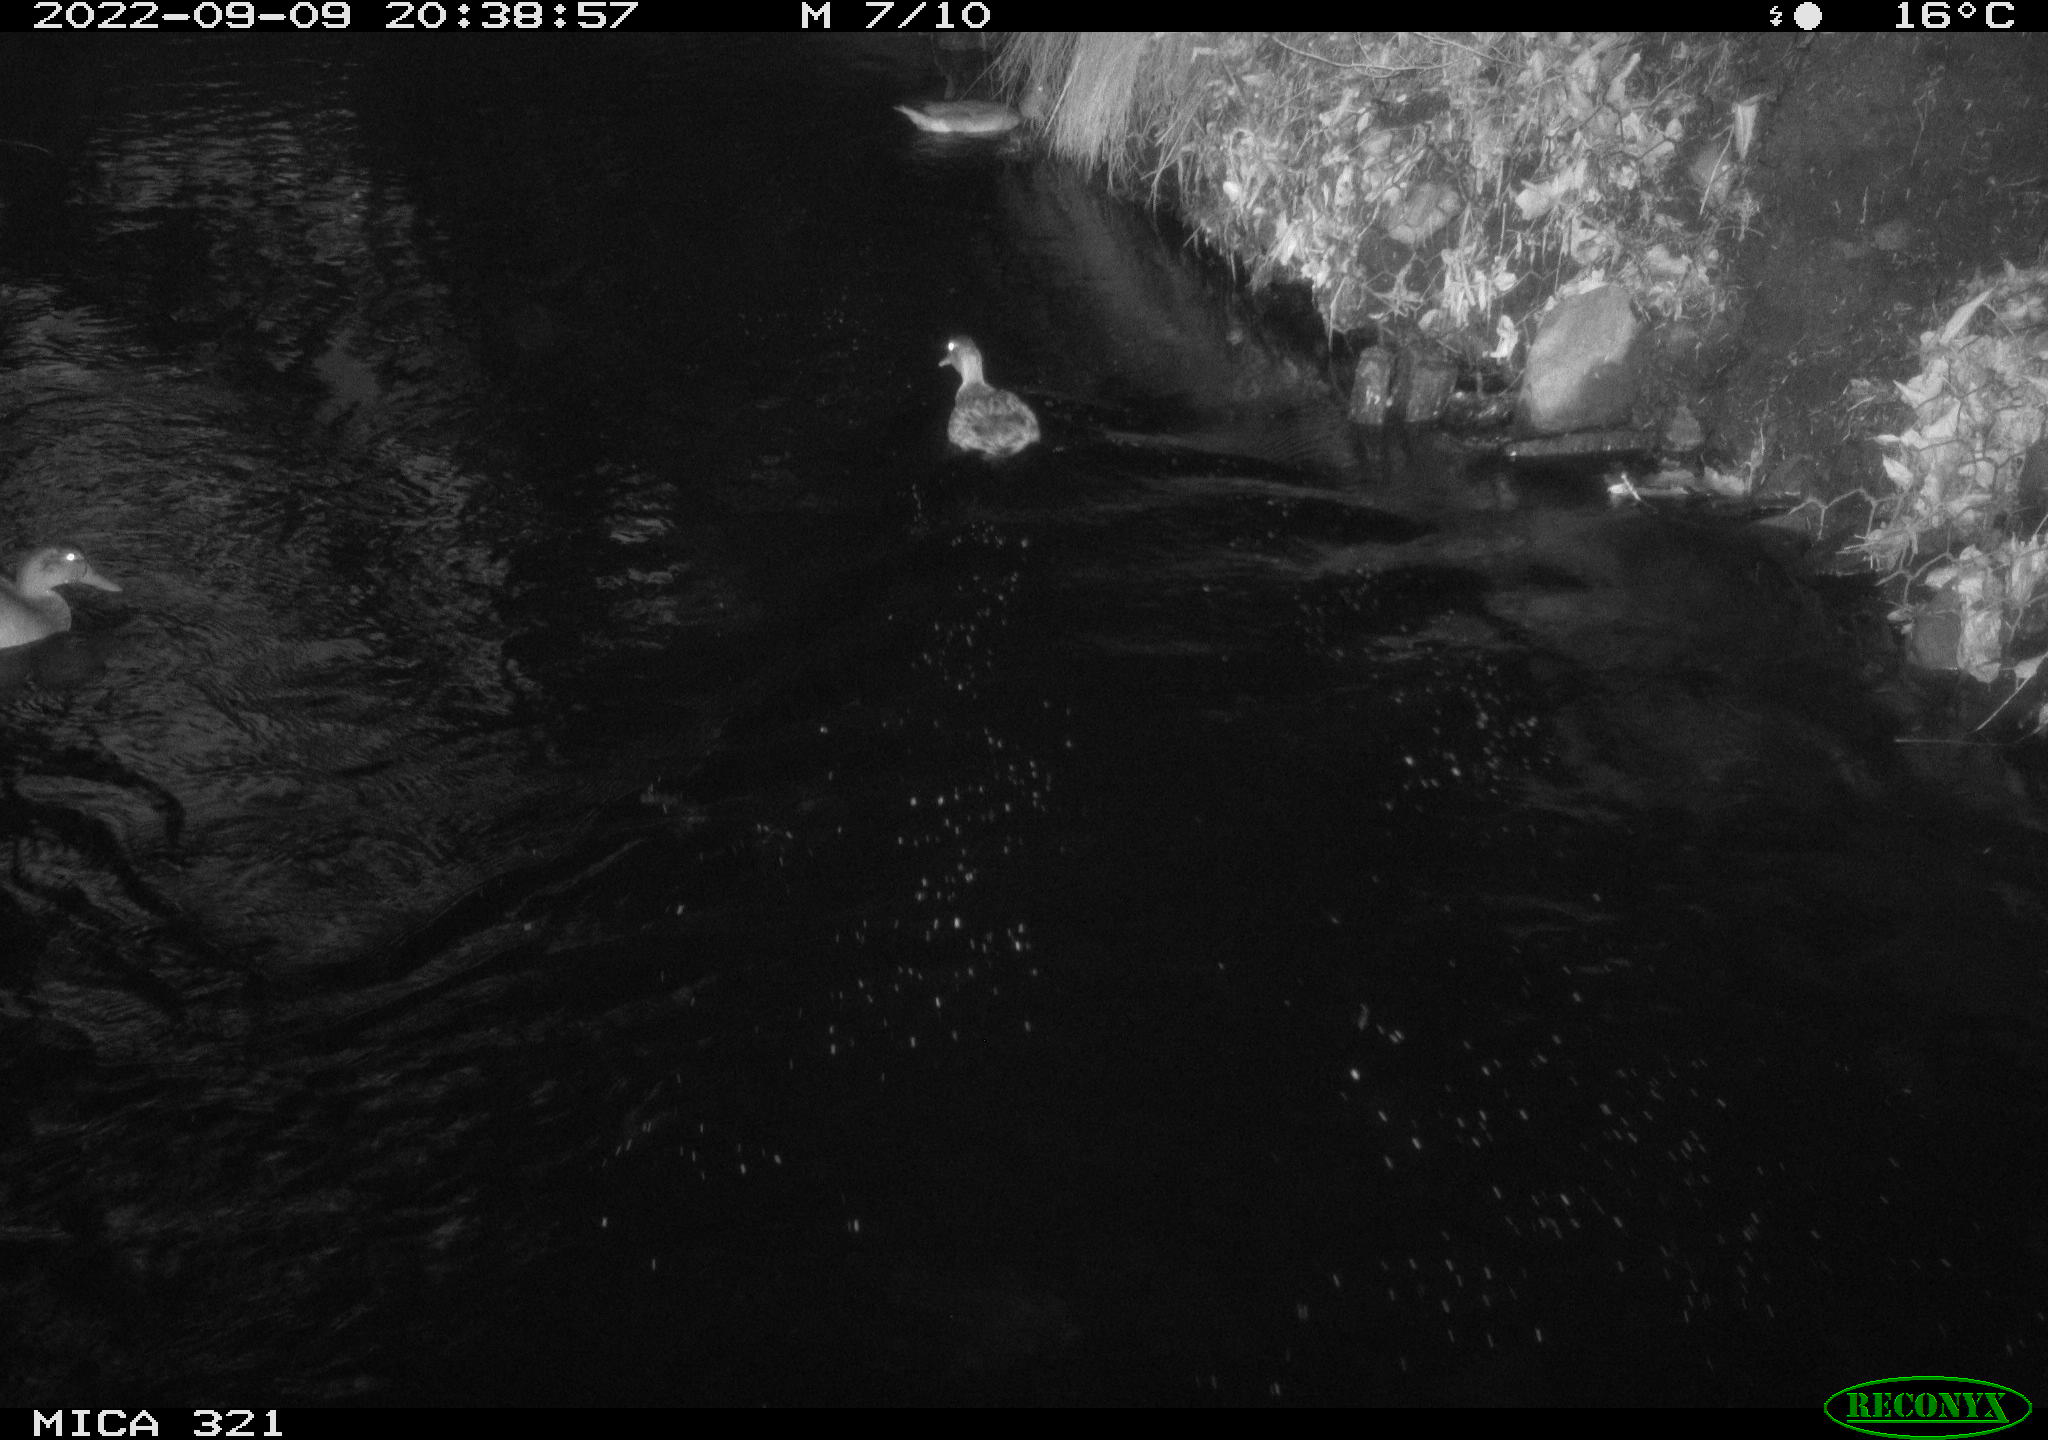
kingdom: Animalia
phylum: Chordata
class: Aves
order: Anseriformes
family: Anatidae
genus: Anas
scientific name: Anas
